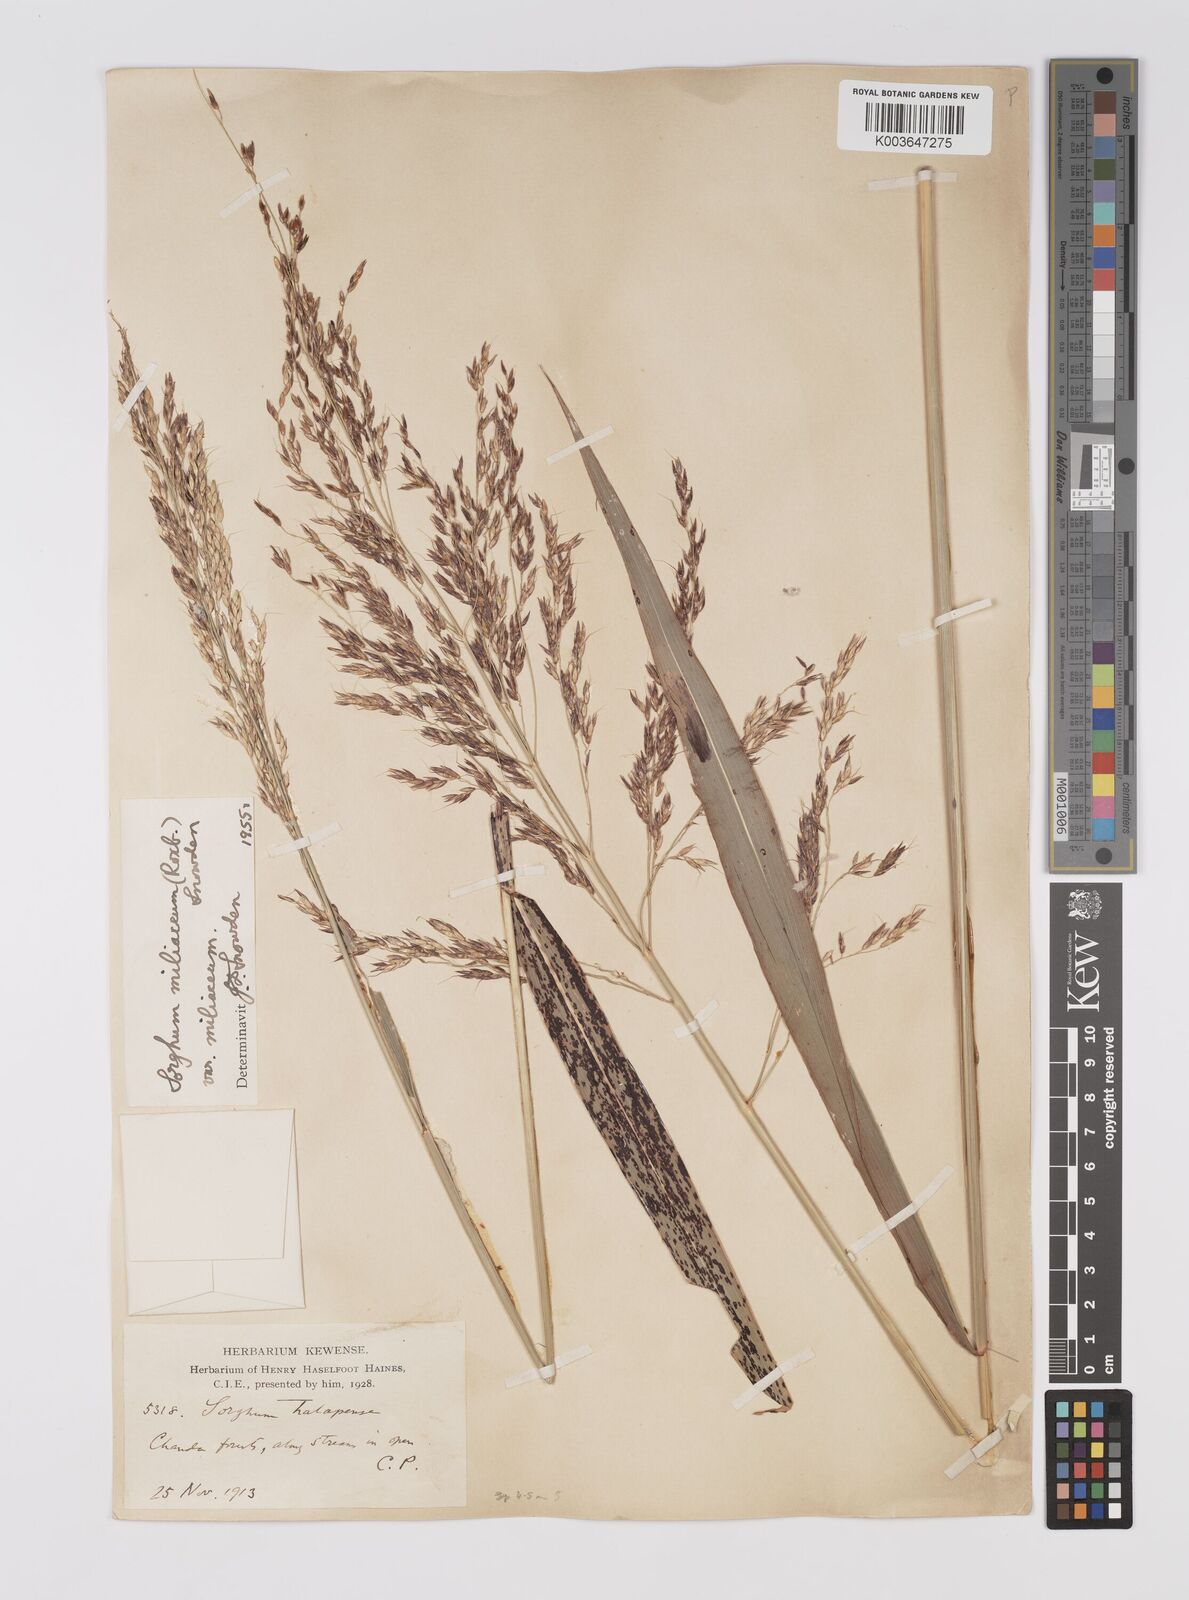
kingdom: Plantae
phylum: Tracheophyta
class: Liliopsida
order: Poales
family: Poaceae
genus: Sorghum
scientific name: Sorghum halepense
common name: Johnson-grass
